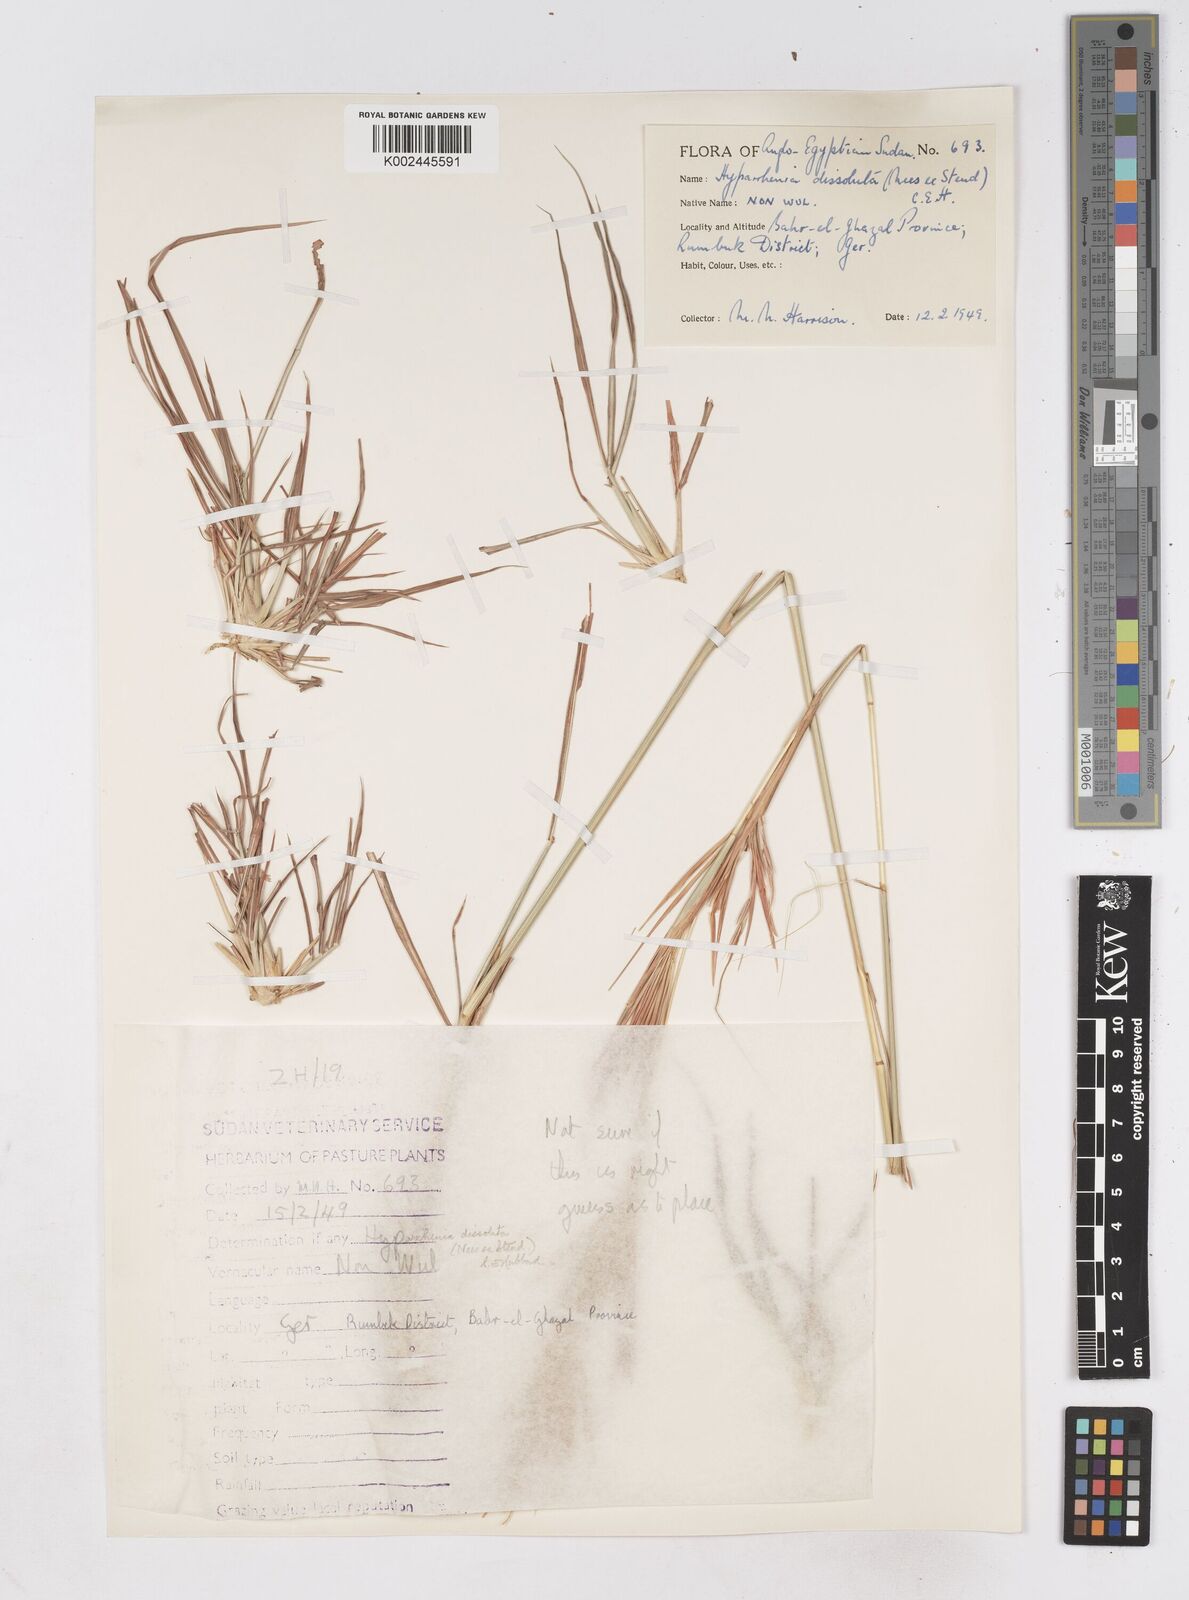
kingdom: Plantae
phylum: Tracheophyta
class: Liliopsida
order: Poales
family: Poaceae
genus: Hyperthelia
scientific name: Hyperthelia dissoluta
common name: Yellow thatching grass
